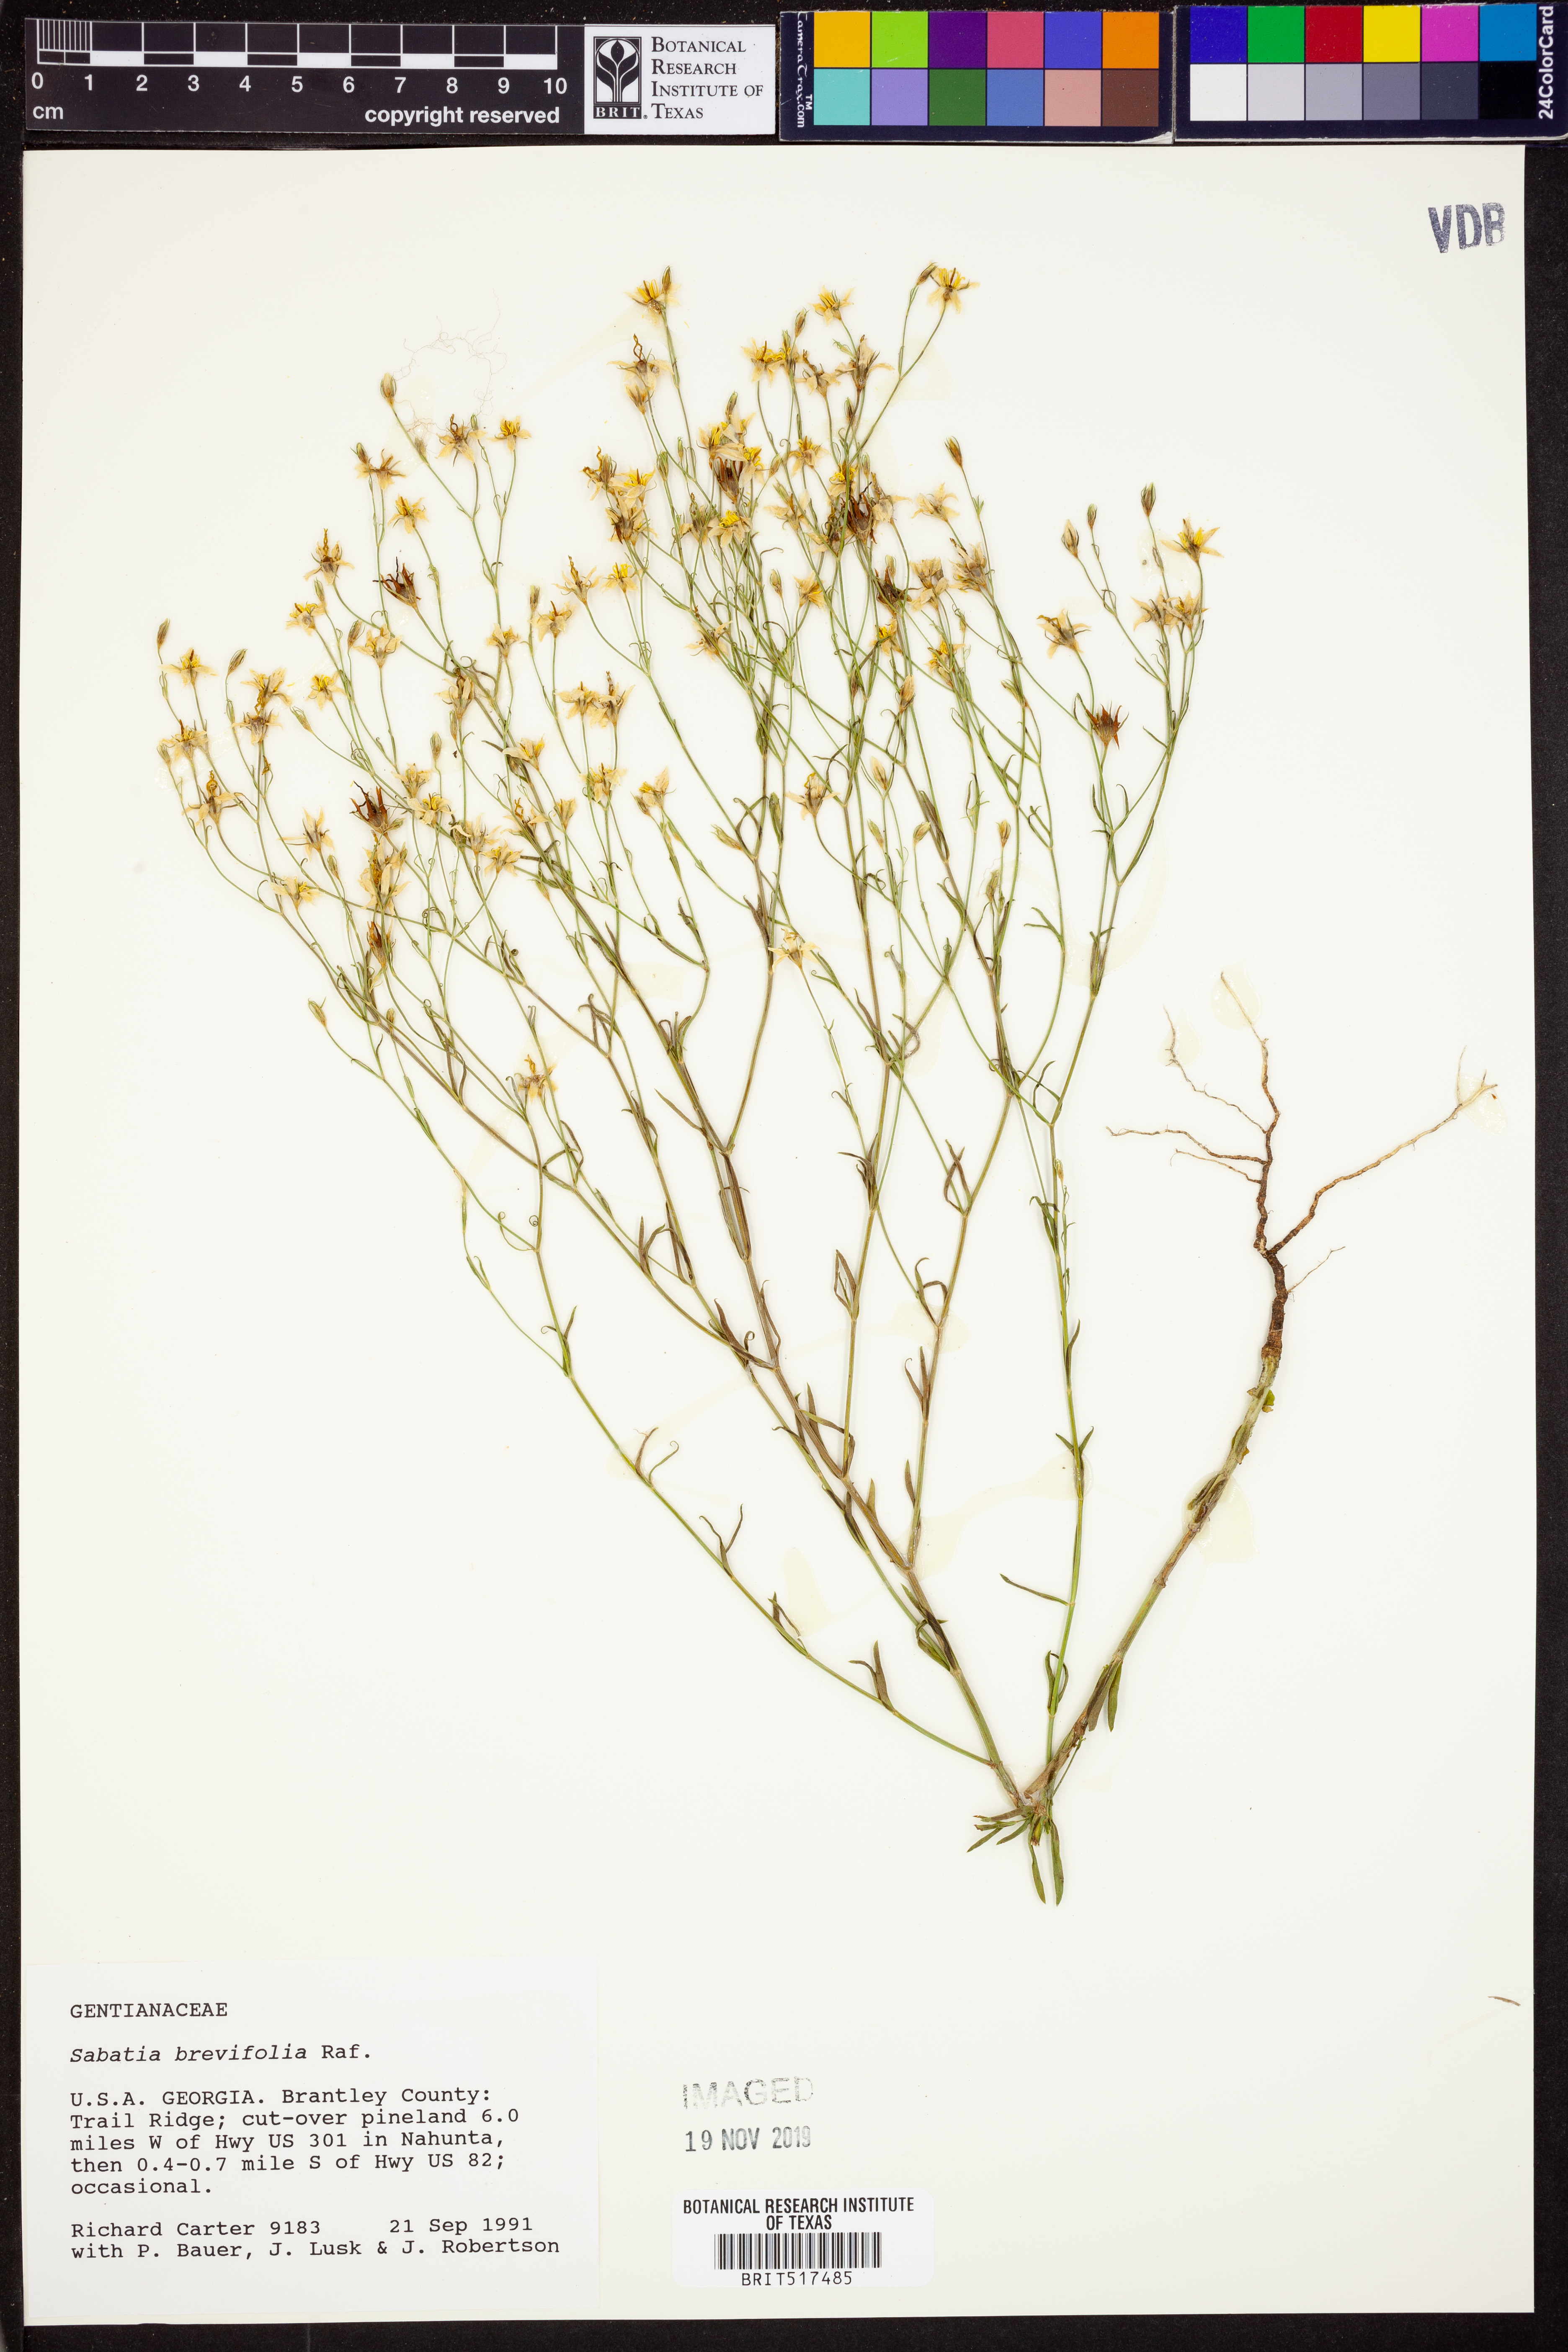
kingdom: Plantae
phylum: Tracheophyta
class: Magnoliopsida
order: Gentianales
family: Gentianaceae
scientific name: Gentianaceae
